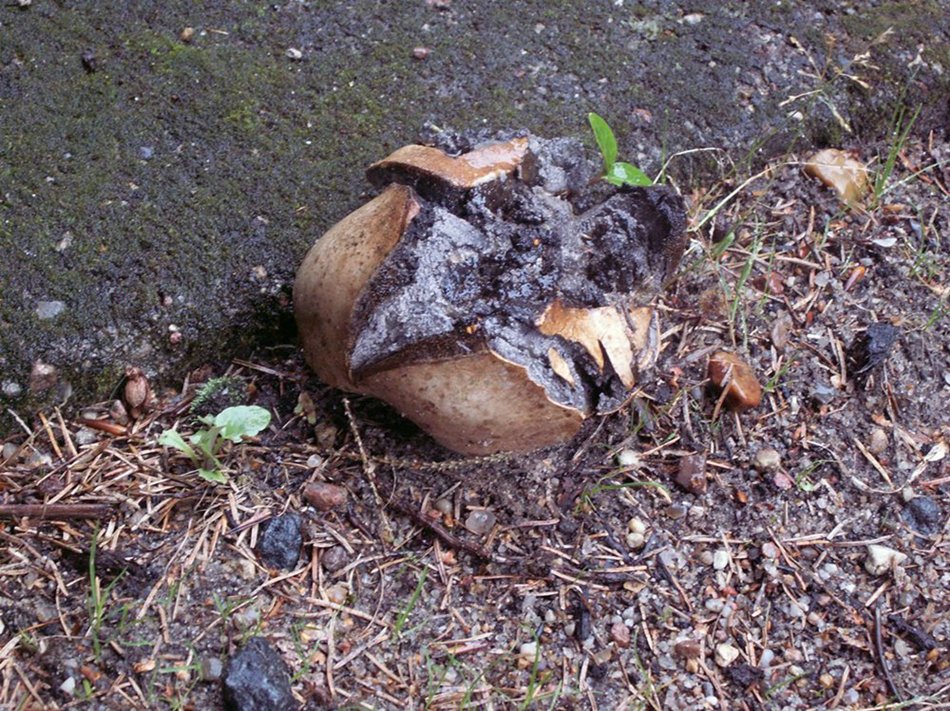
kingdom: Fungi
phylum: Basidiomycota
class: Agaricomycetes
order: Boletales
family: Sclerodermataceae
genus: Scleroderma
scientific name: Scleroderma bovista
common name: bovist-bruskbold
